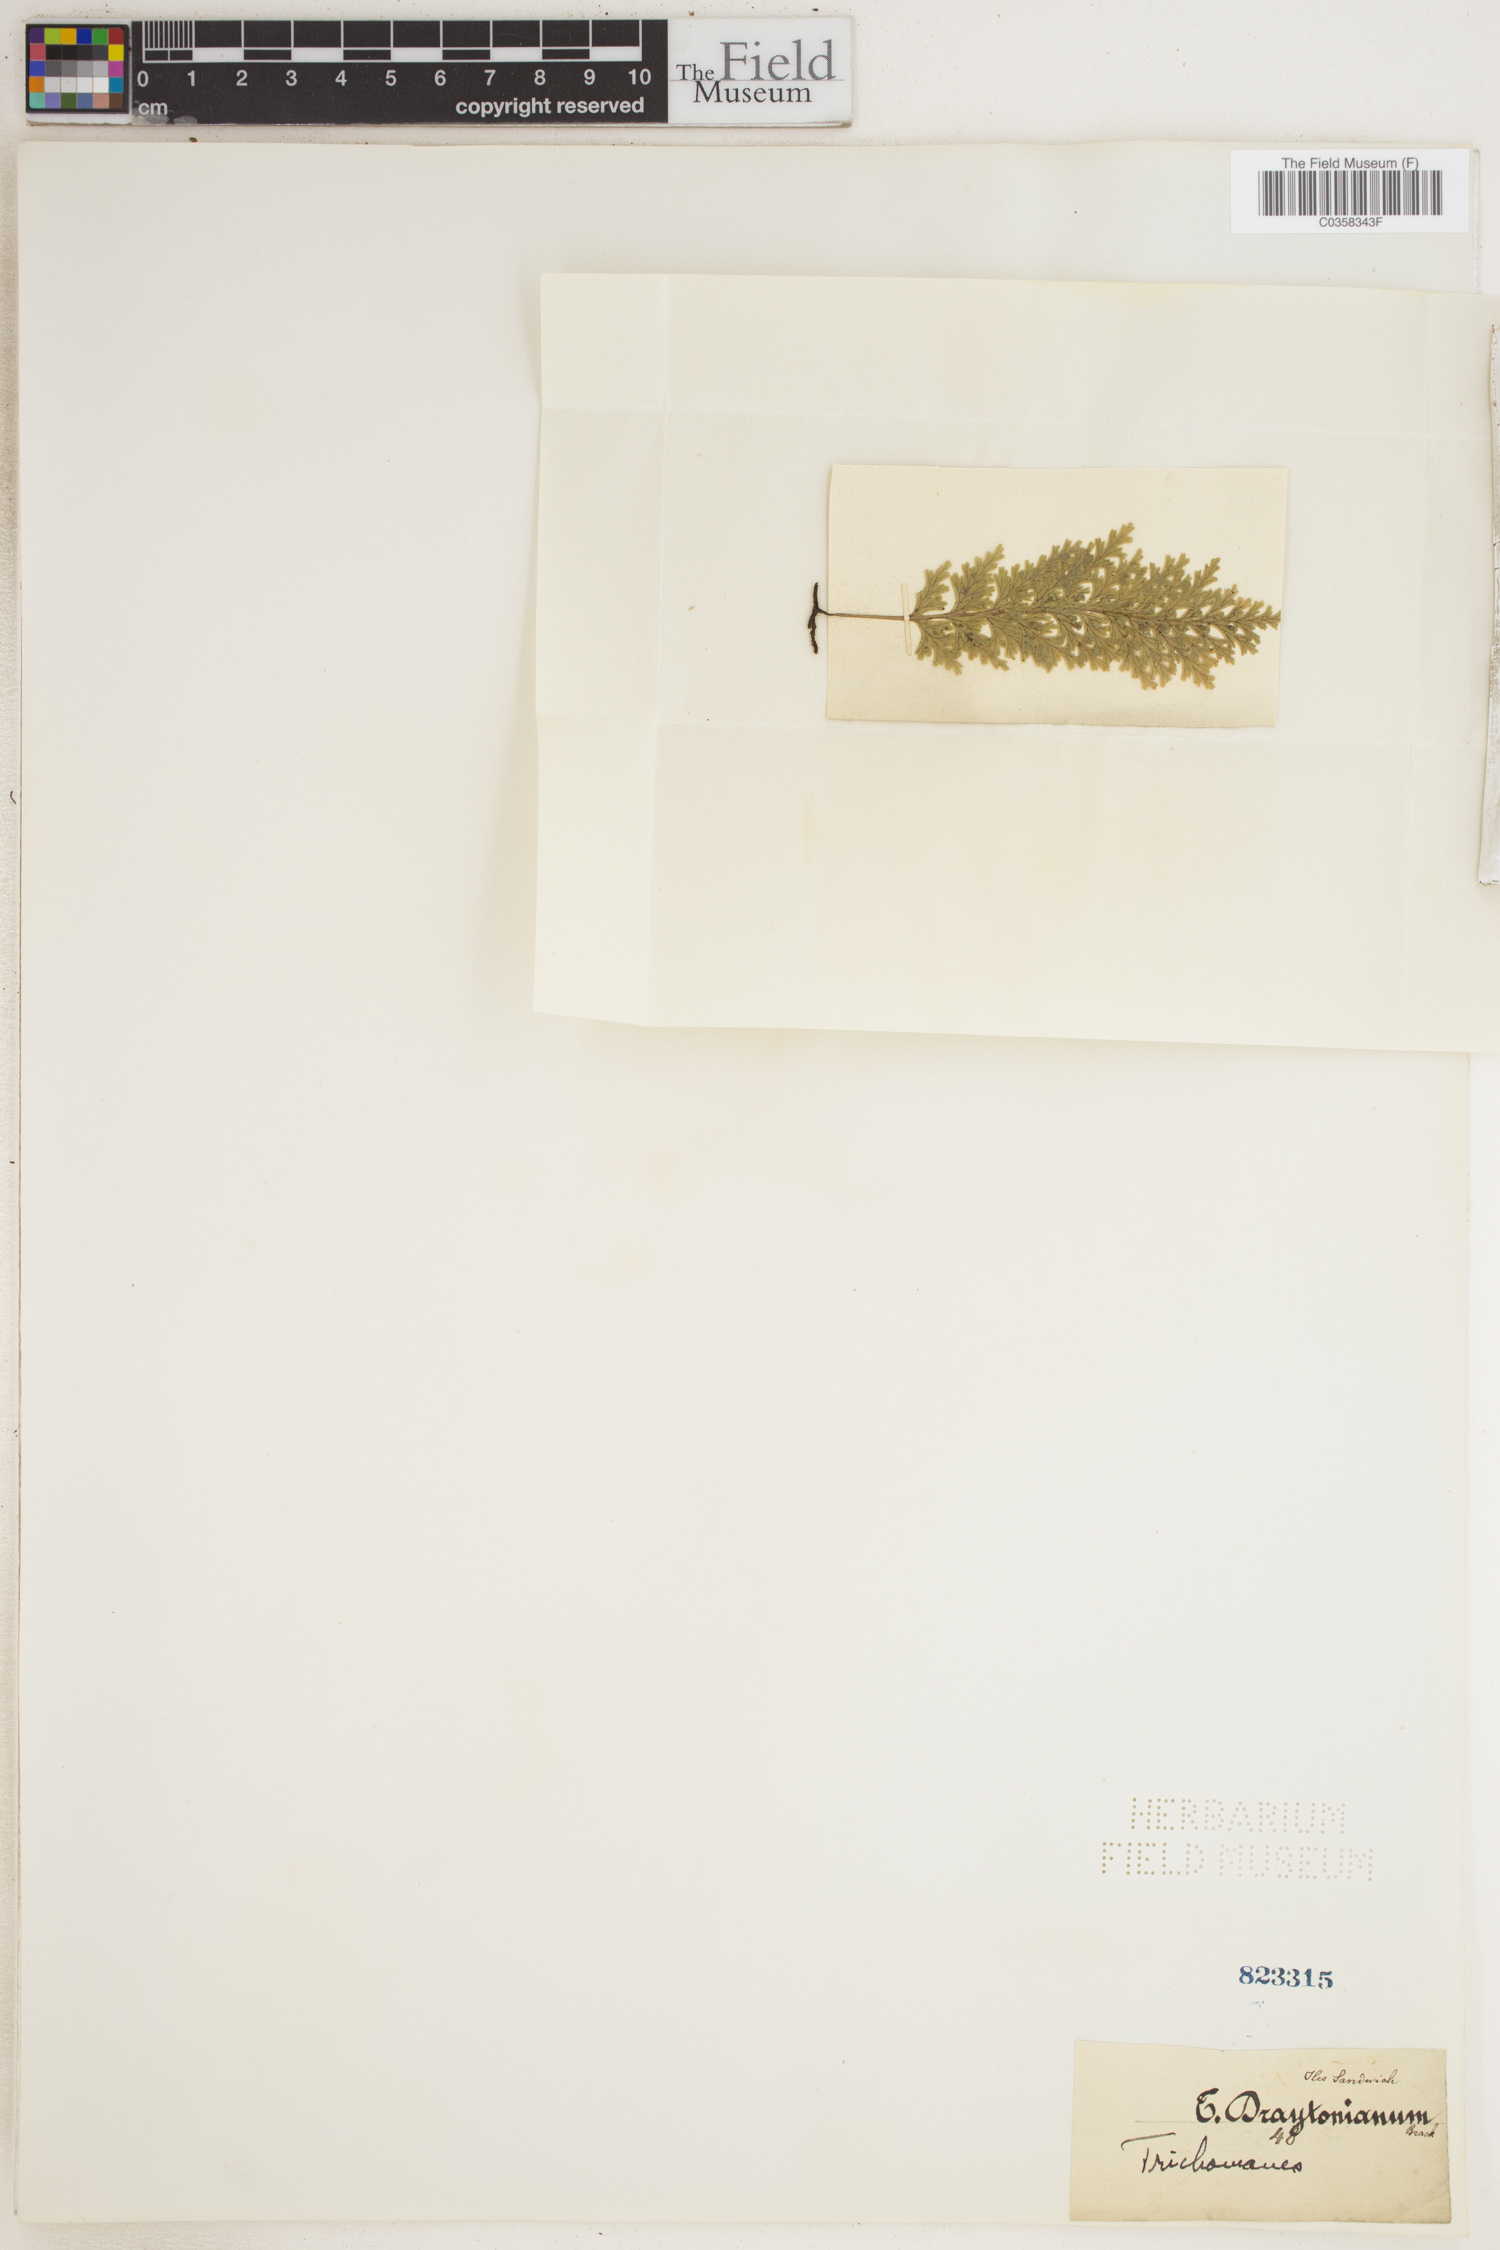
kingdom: Plantae
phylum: Tracheophyta
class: Polypodiopsida
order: Hymenophyllales
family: Hymenophyllaceae
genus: Crepidomanes
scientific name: Crepidomanes draytonianum
